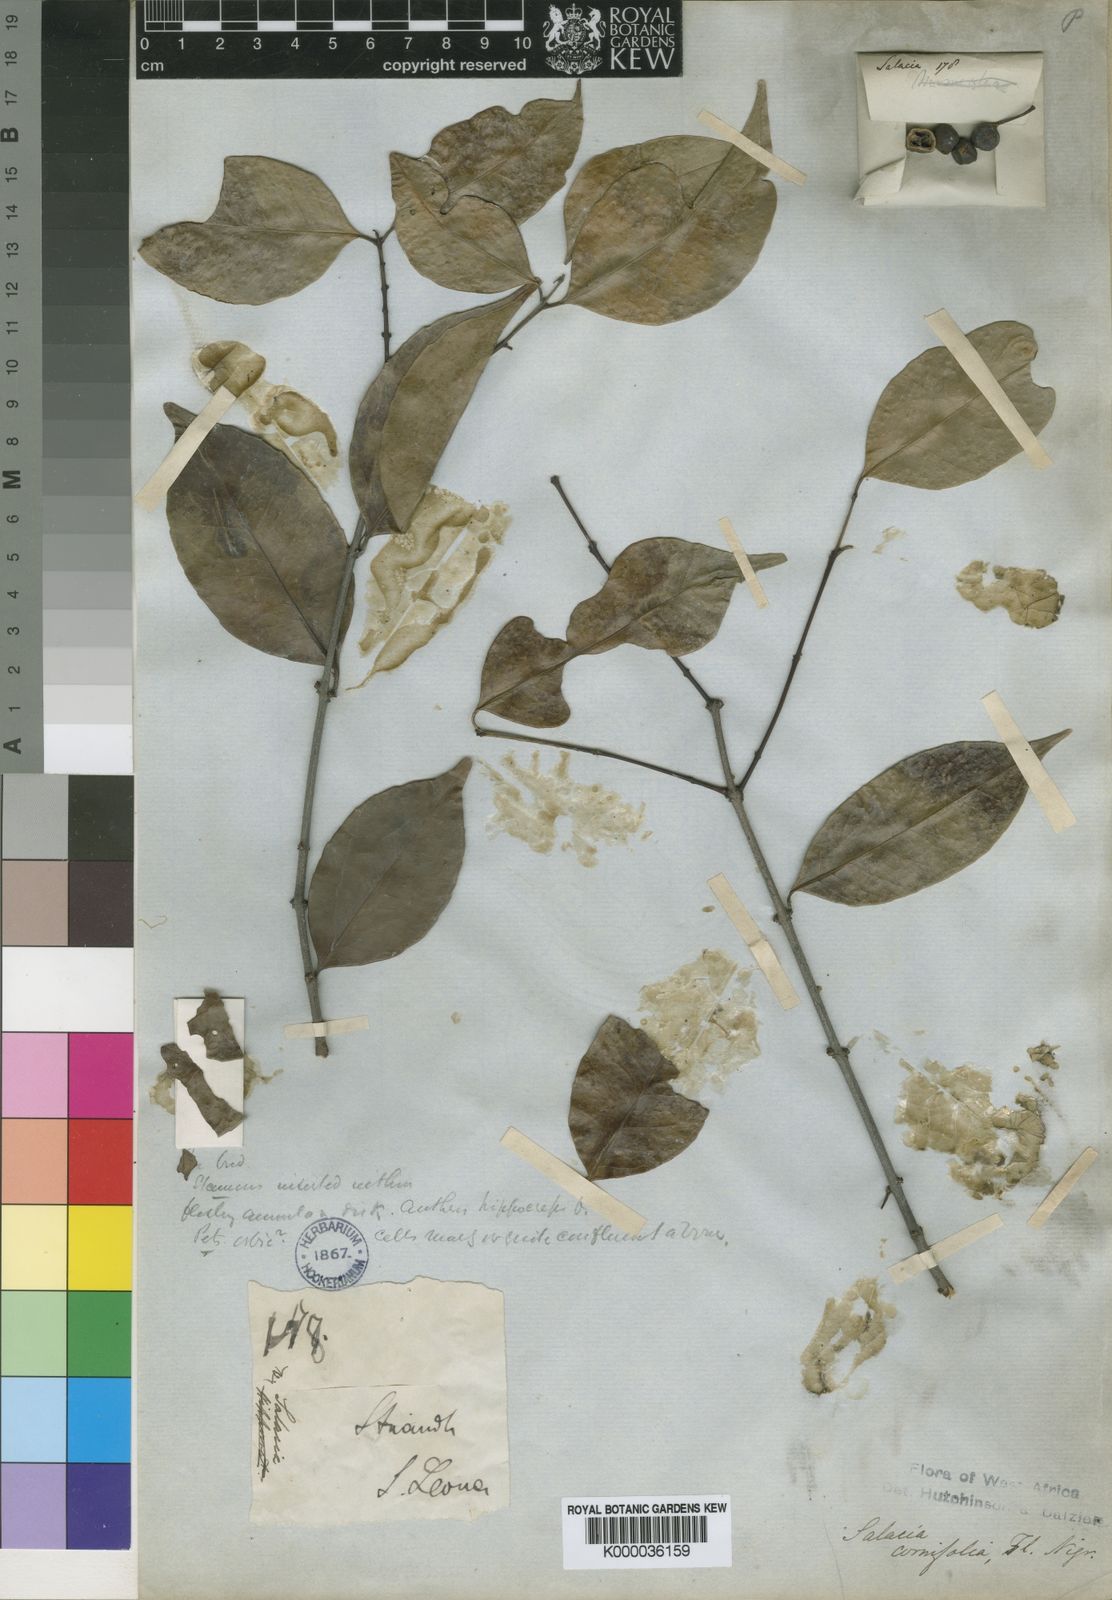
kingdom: Plantae
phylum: Tracheophyta
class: Magnoliopsida
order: Celastrales
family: Celastraceae
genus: Salacia
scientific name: Salacia cornifolia
